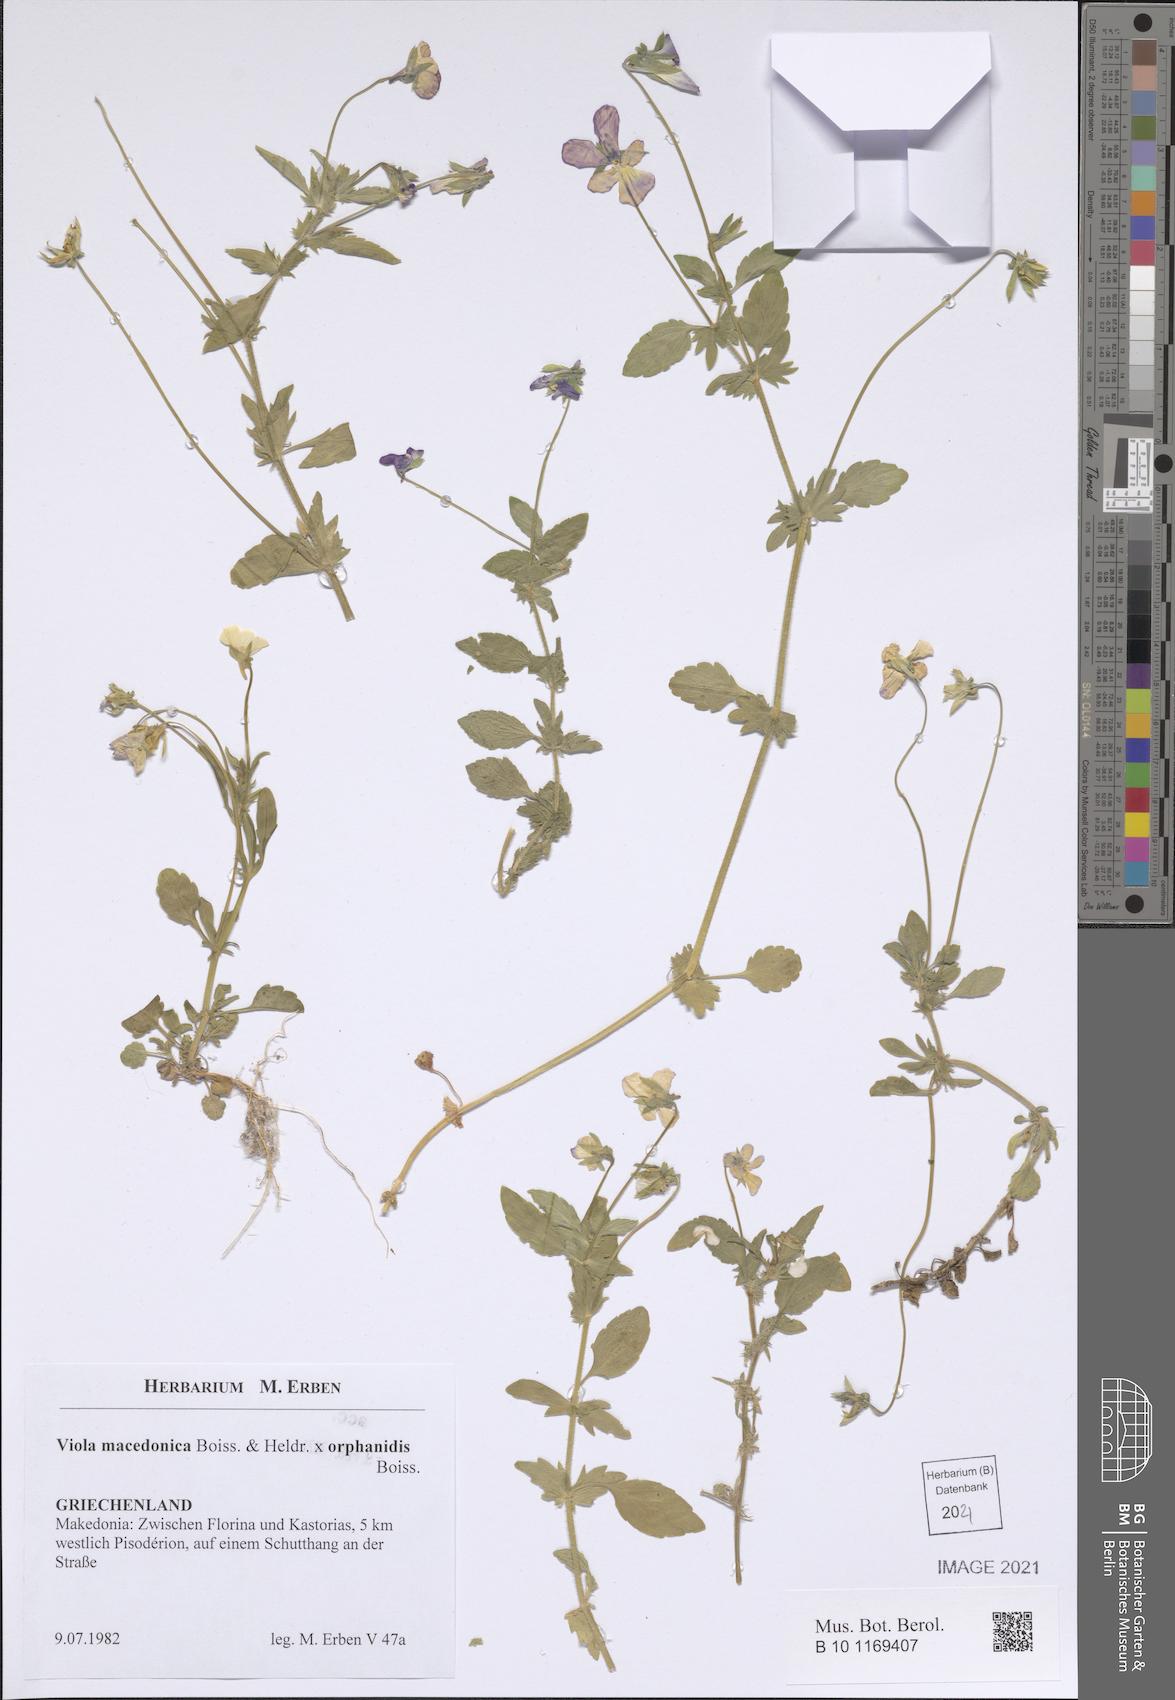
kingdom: Plantae
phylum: Tracheophyta
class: Magnoliopsida
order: Malpighiales
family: Violaceae
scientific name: Violaceae
